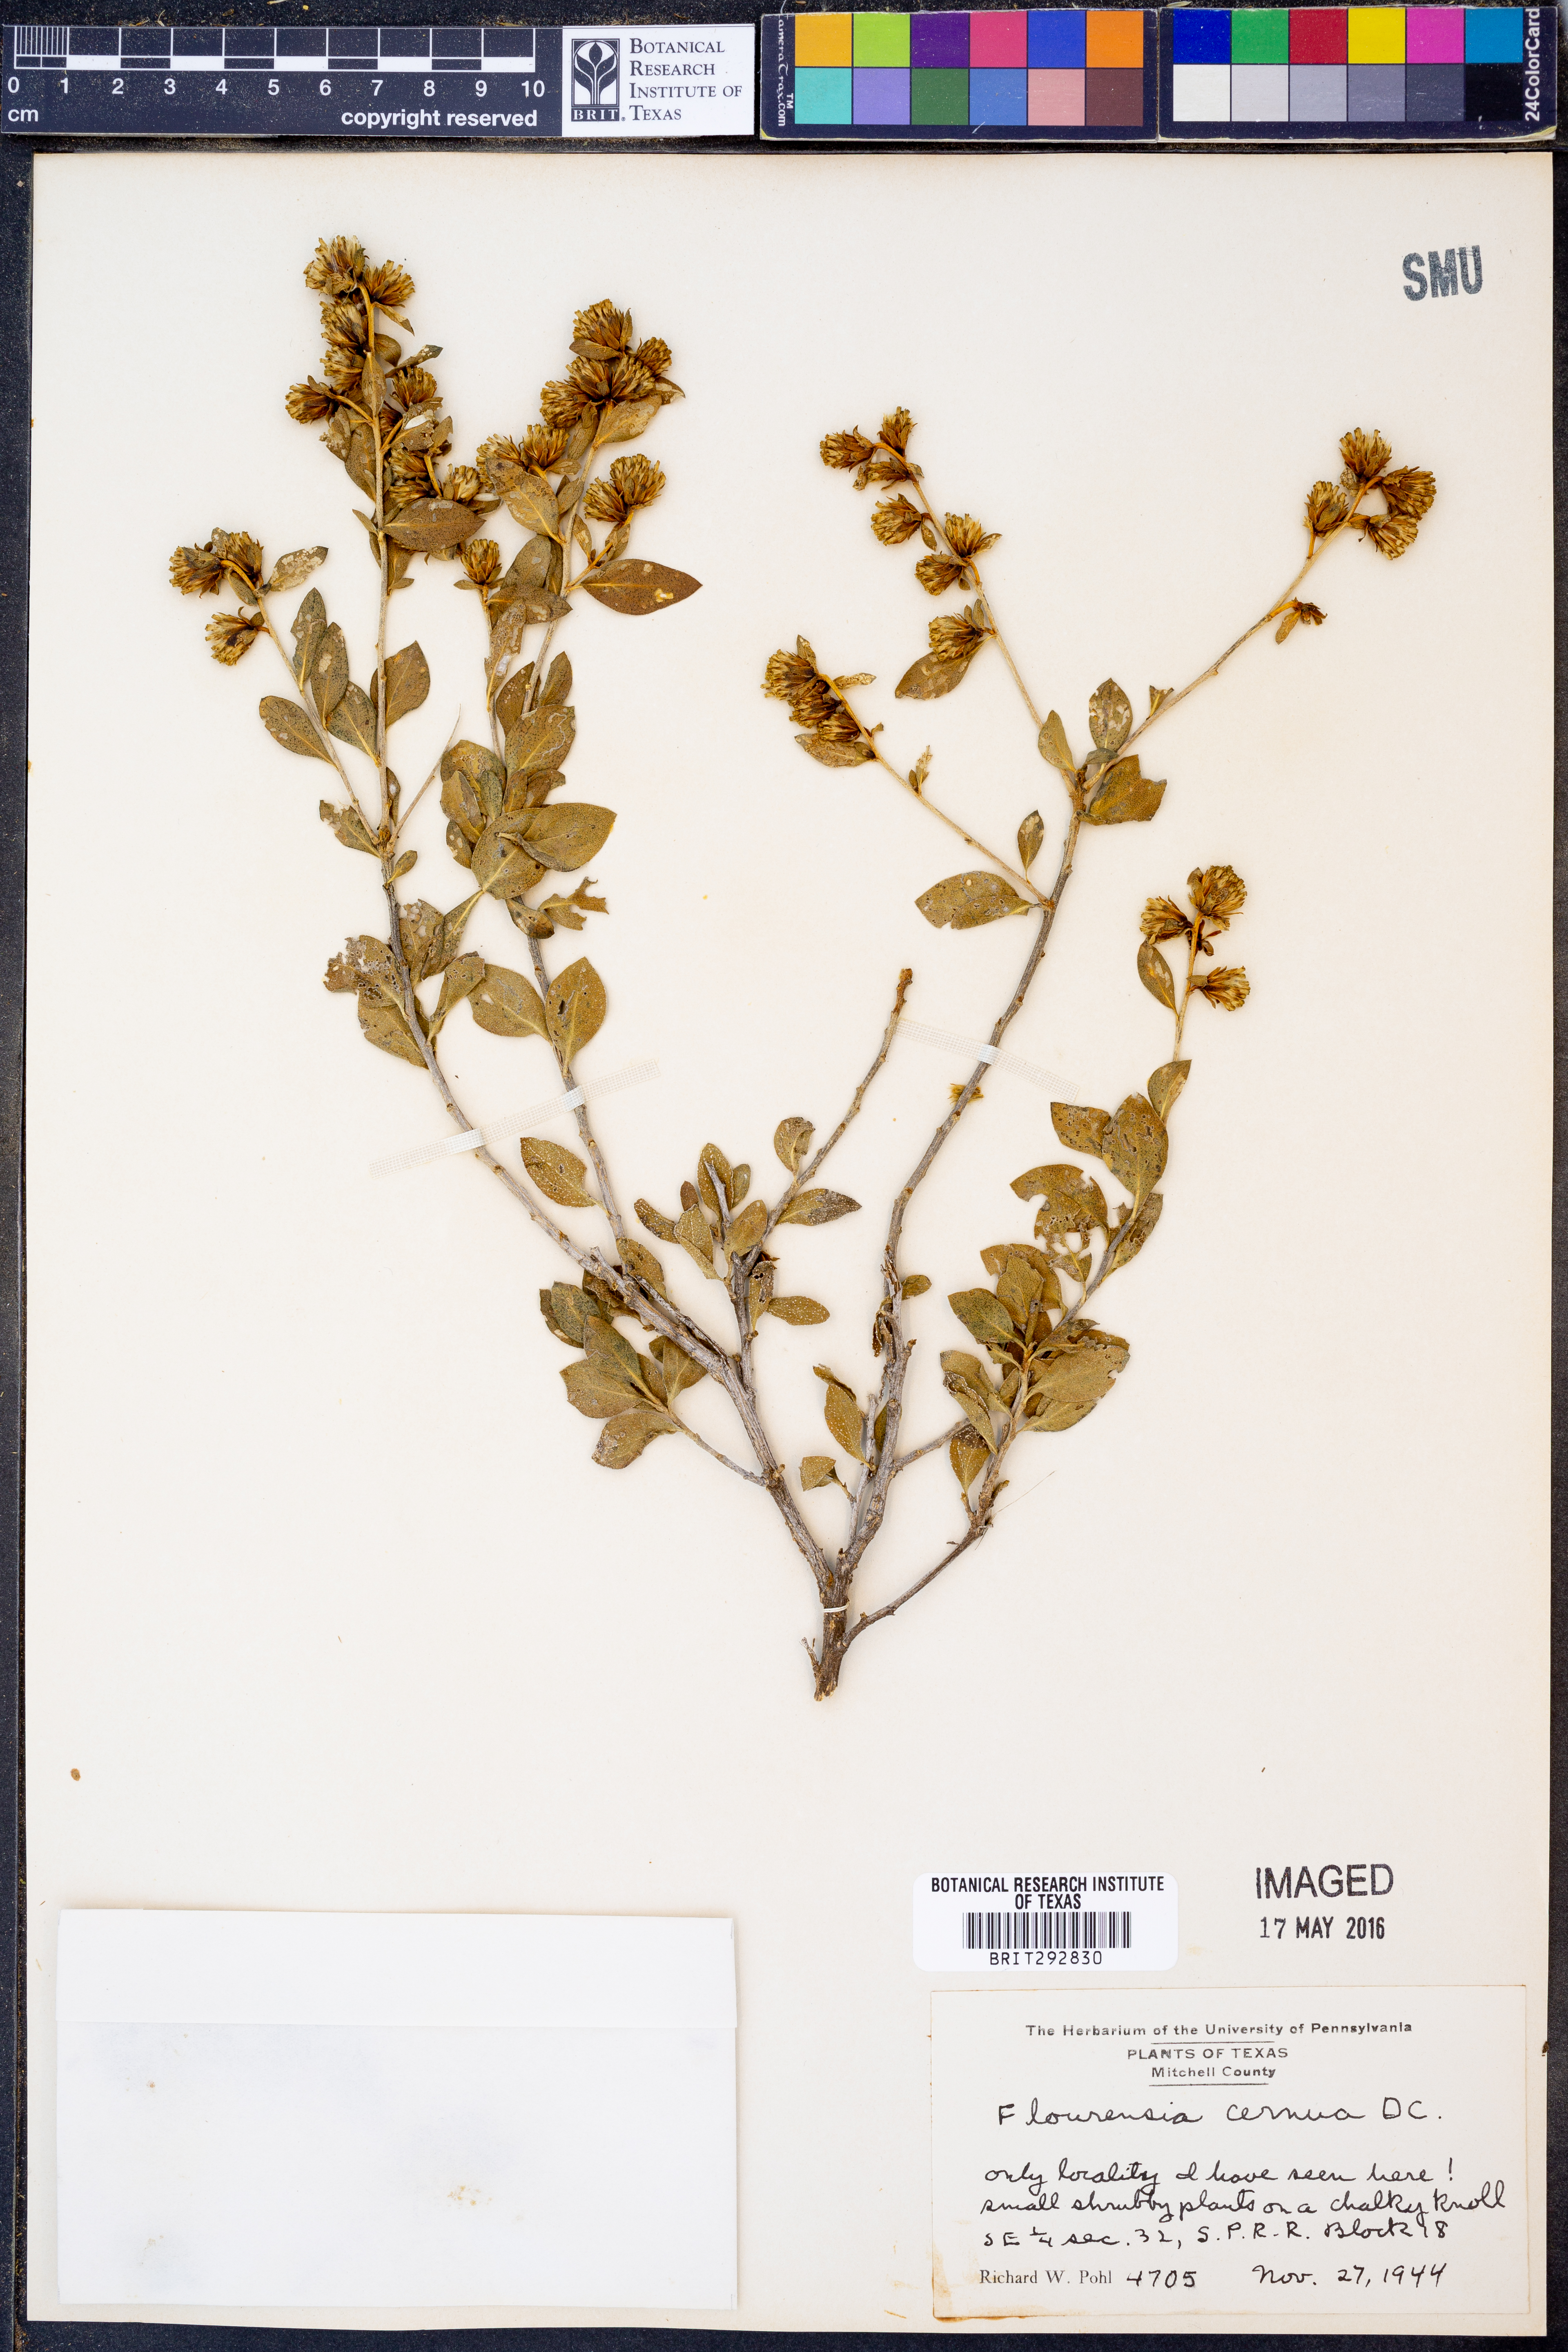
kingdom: Plantae
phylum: Tracheophyta
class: Magnoliopsida
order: Asterales
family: Asteraceae
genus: Flourensia
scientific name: Flourensia cernua
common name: Varnishbush
